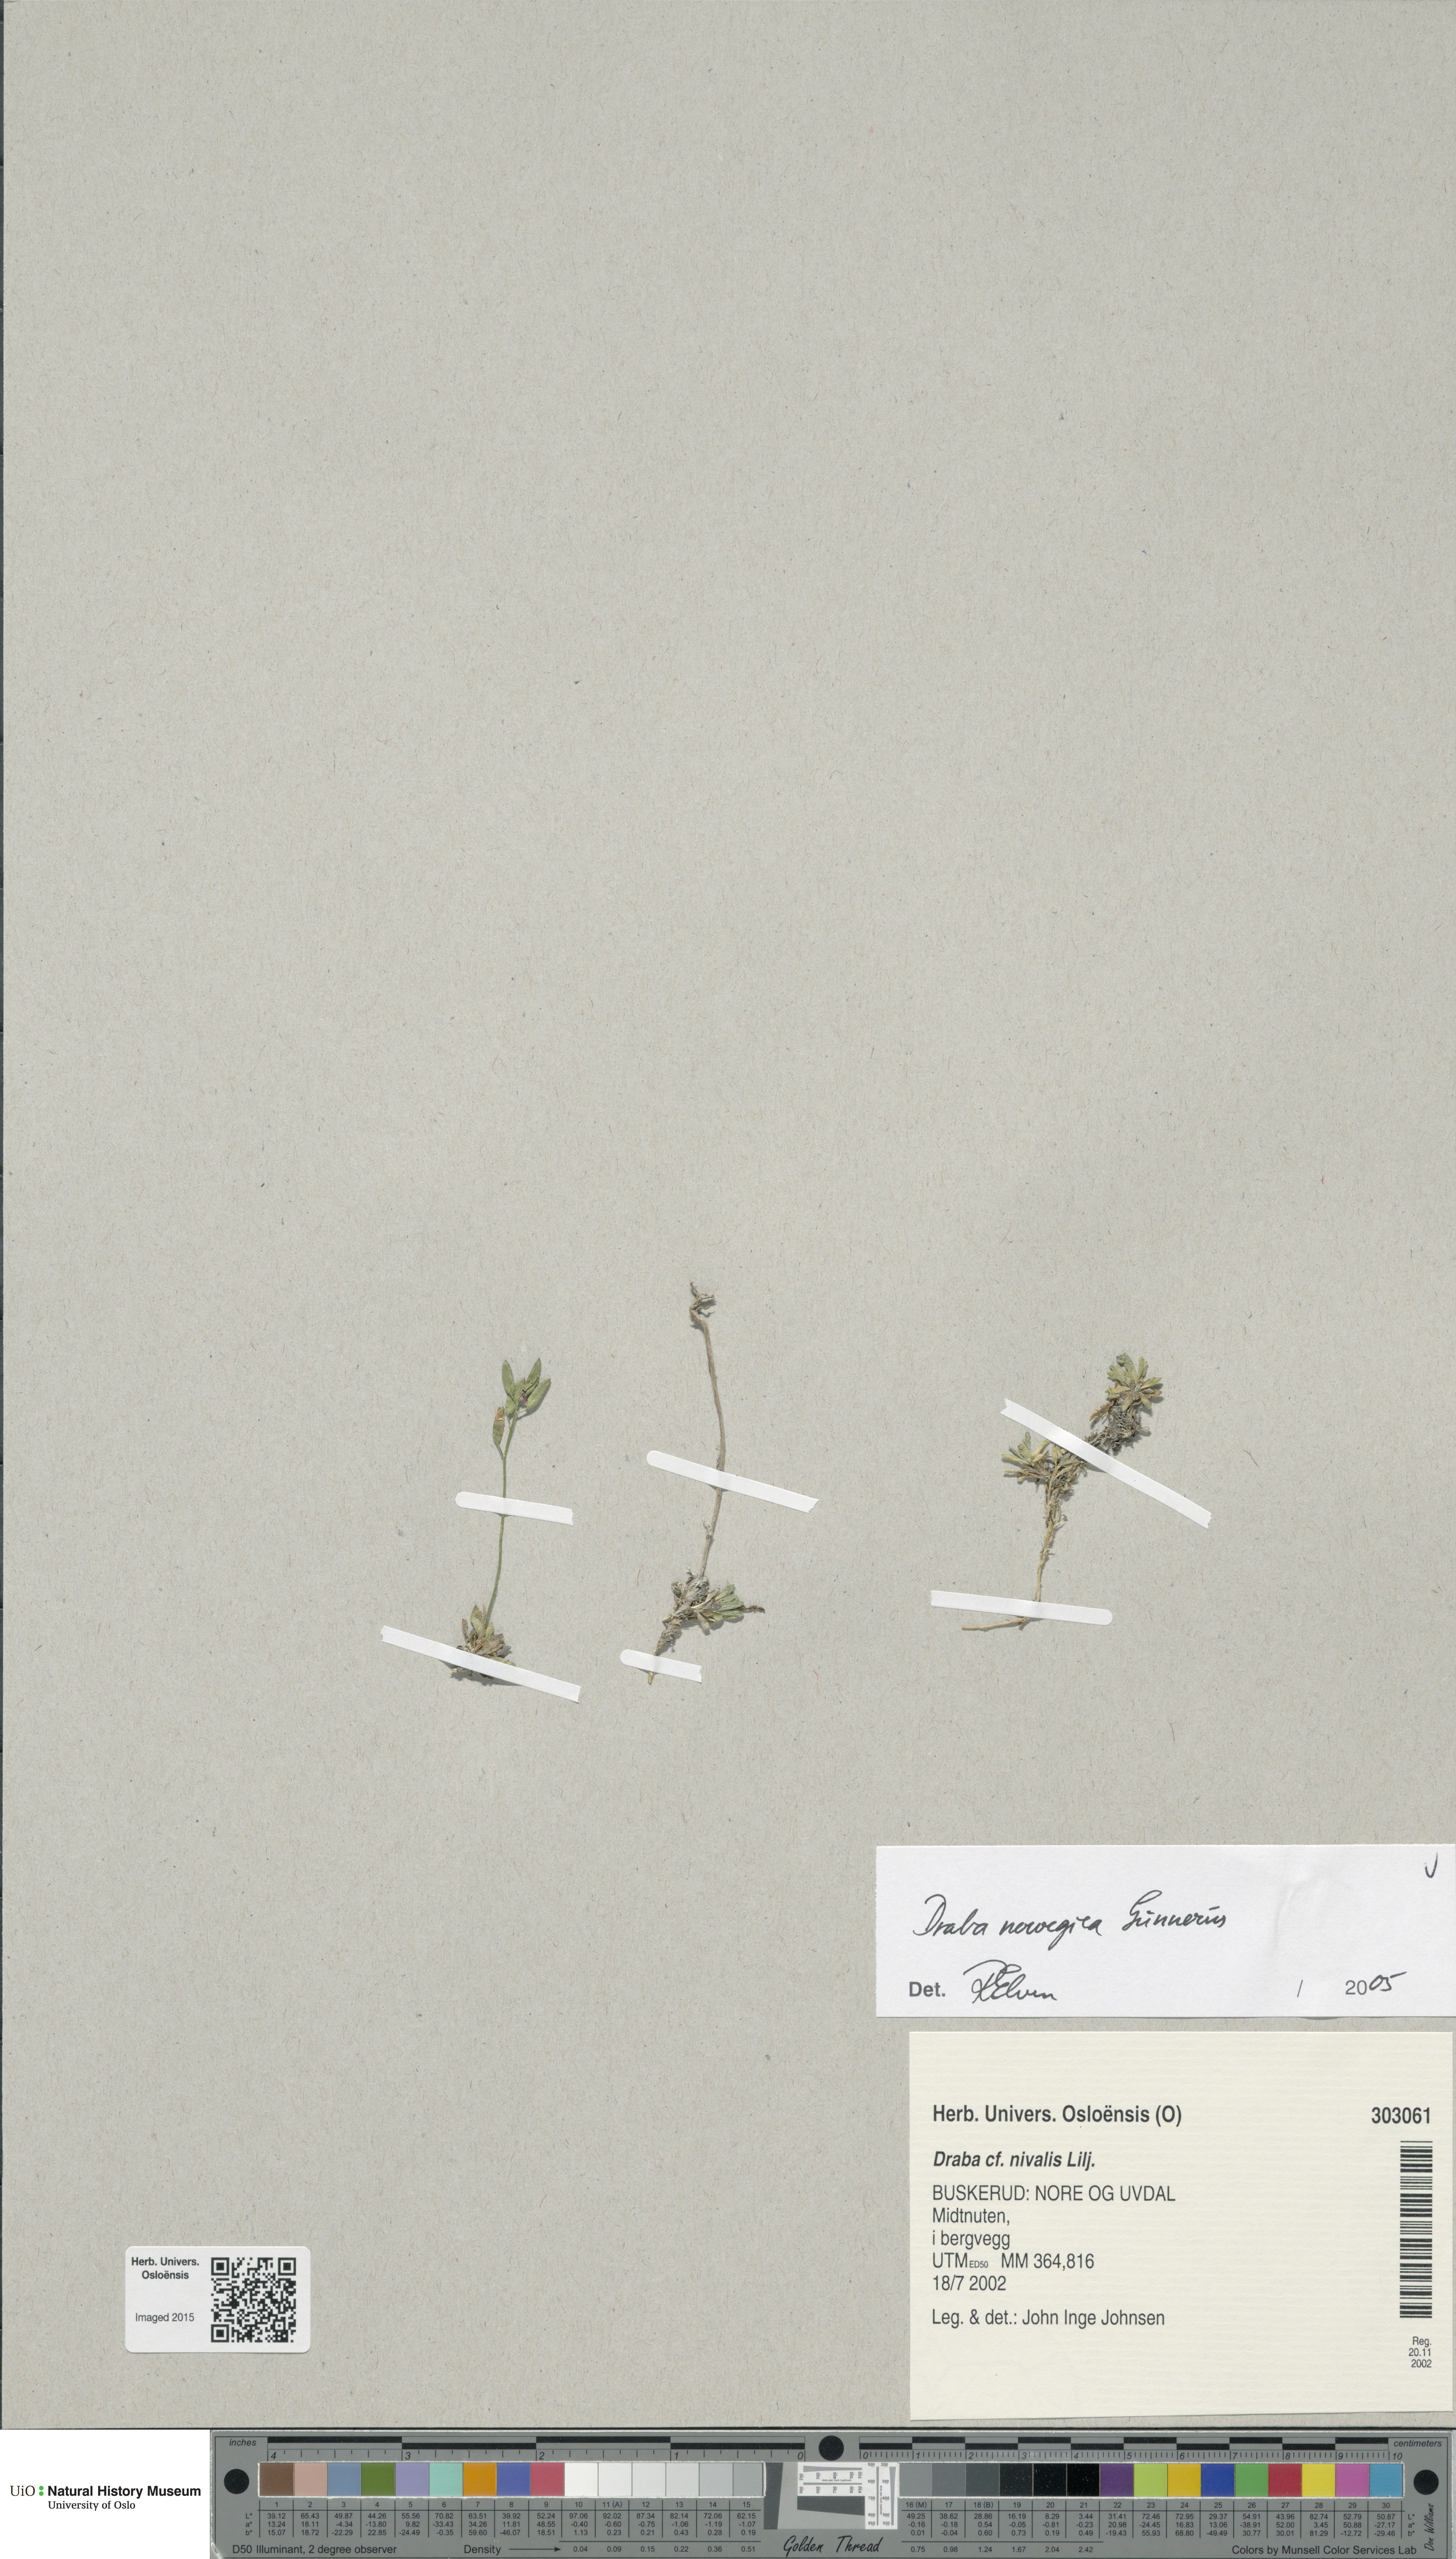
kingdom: Plantae
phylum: Tracheophyta
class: Magnoliopsida
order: Brassicales
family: Brassicaceae
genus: Draba
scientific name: Draba norvegica
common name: Rock whitlowgrass
